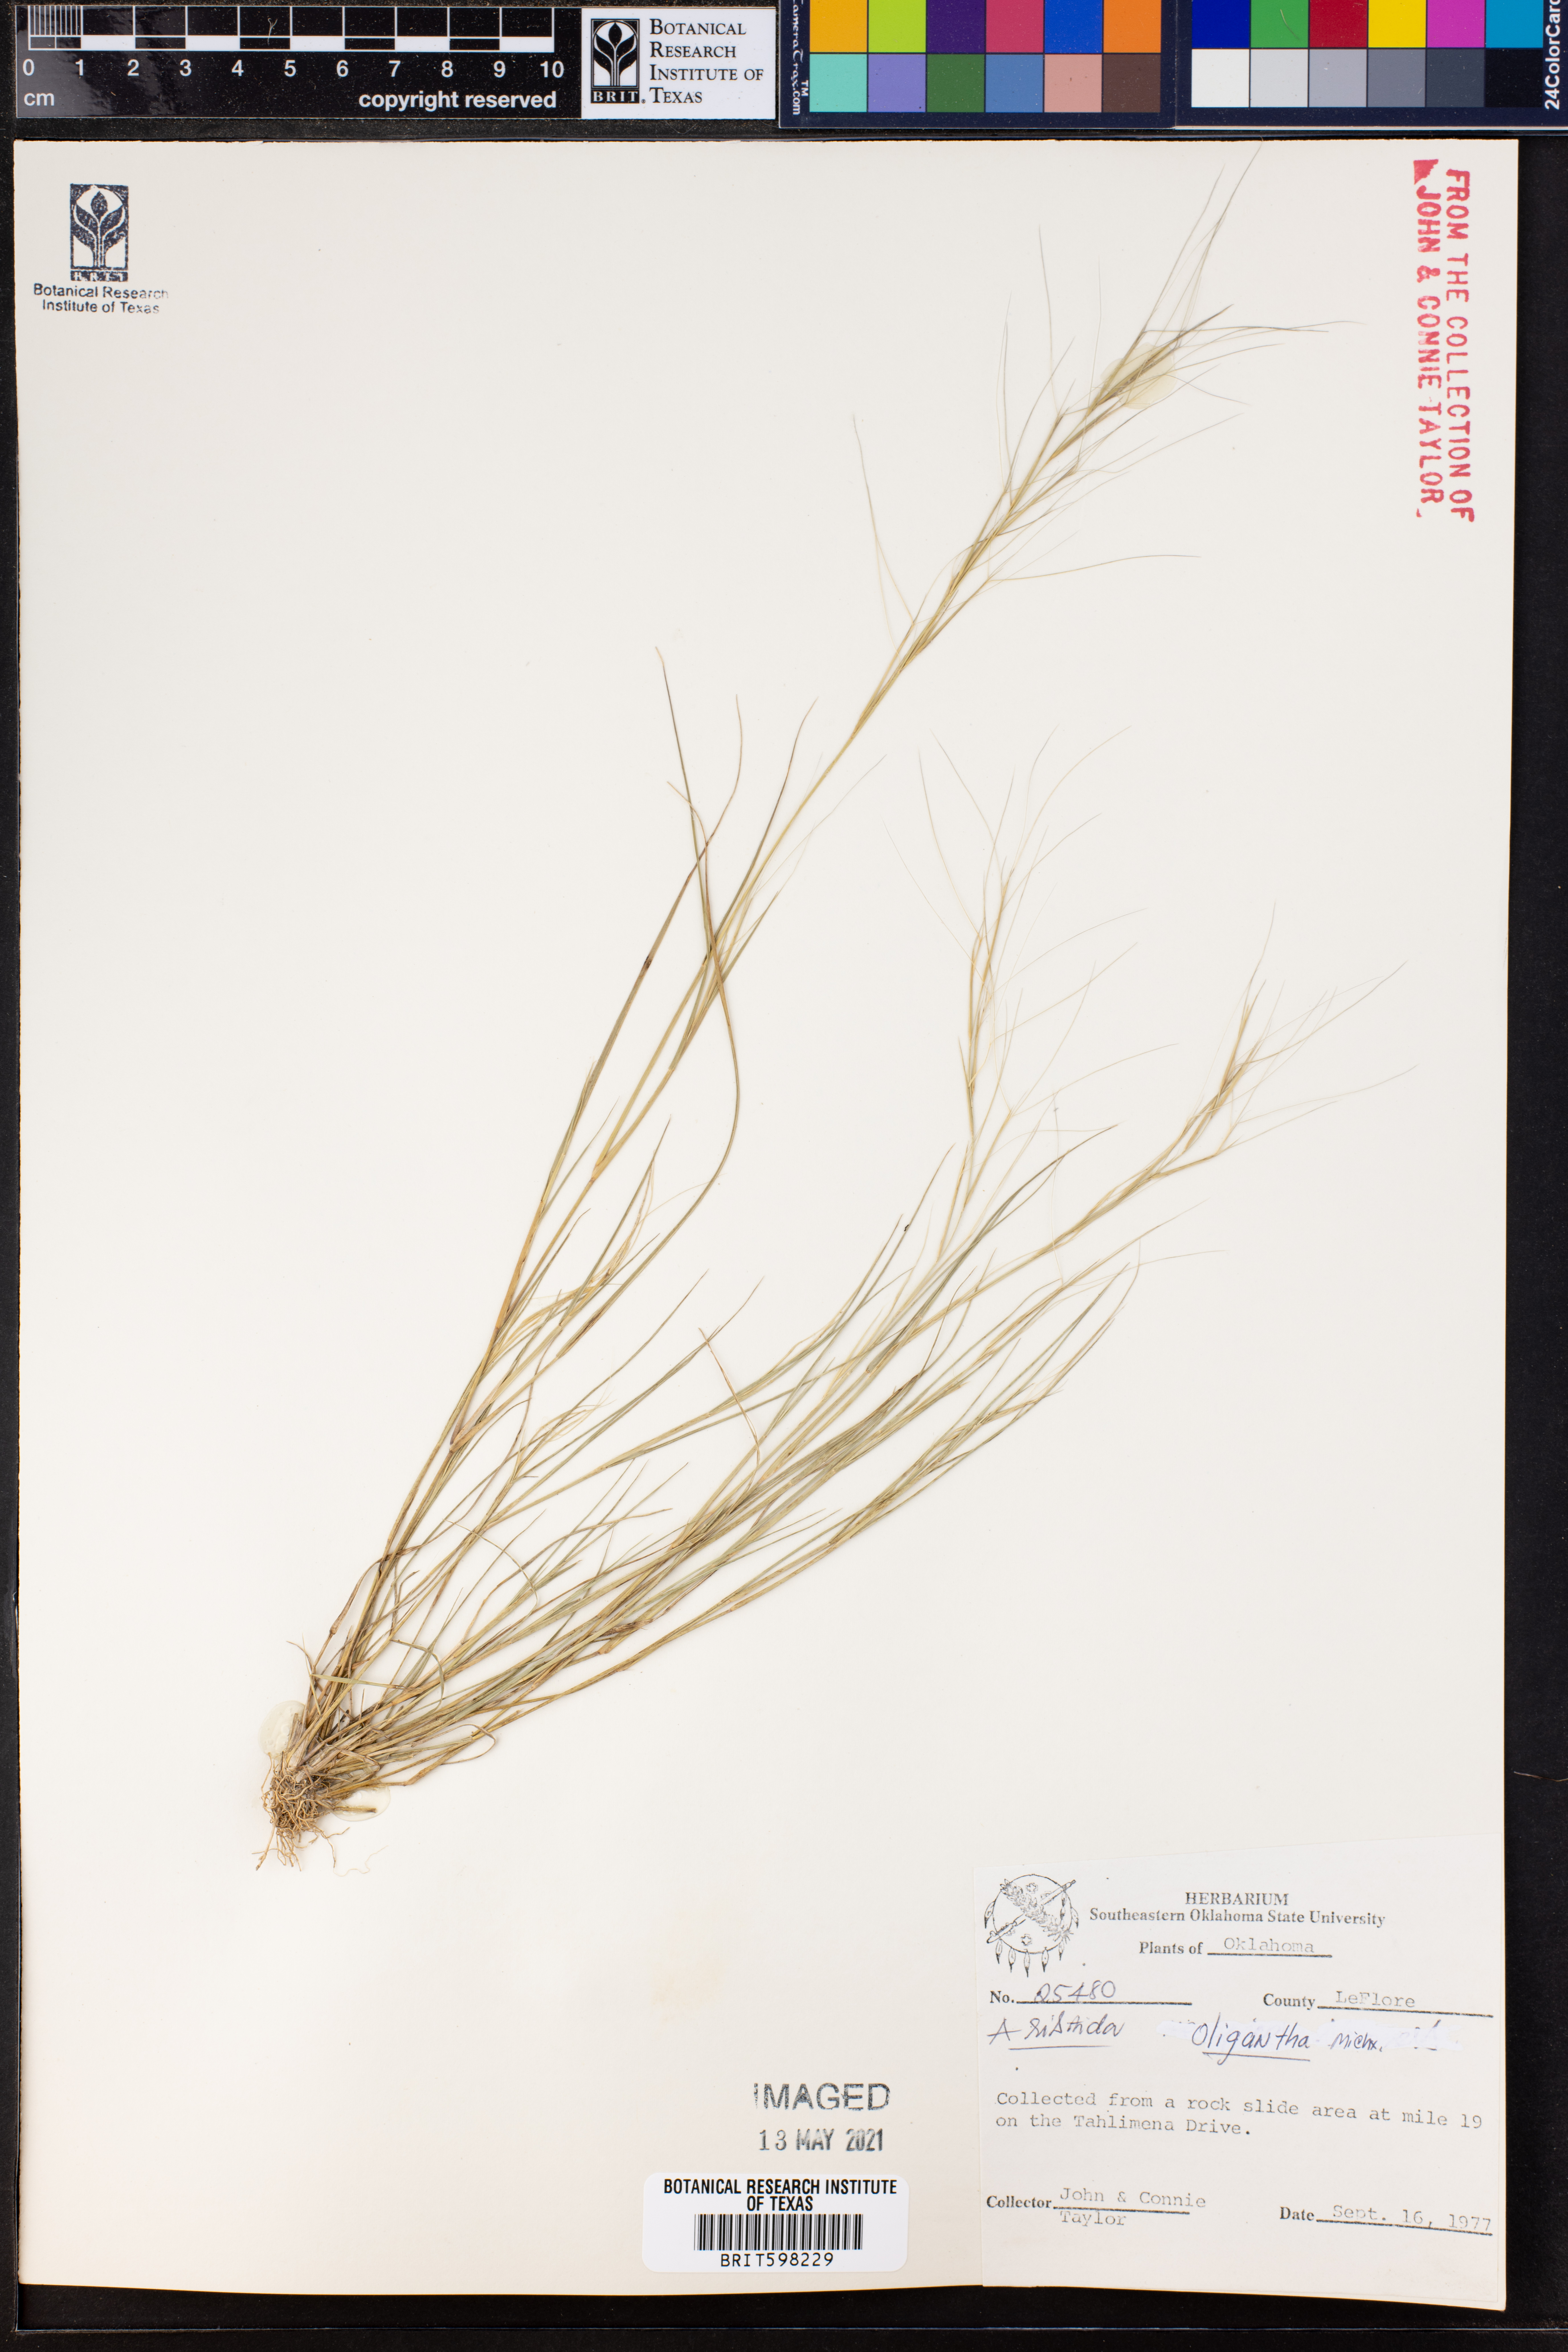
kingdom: Plantae
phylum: Tracheophyta
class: Liliopsida
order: Poales
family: Poaceae
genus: Aristida
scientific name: Aristida oligantha
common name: Few-flowered aristida
